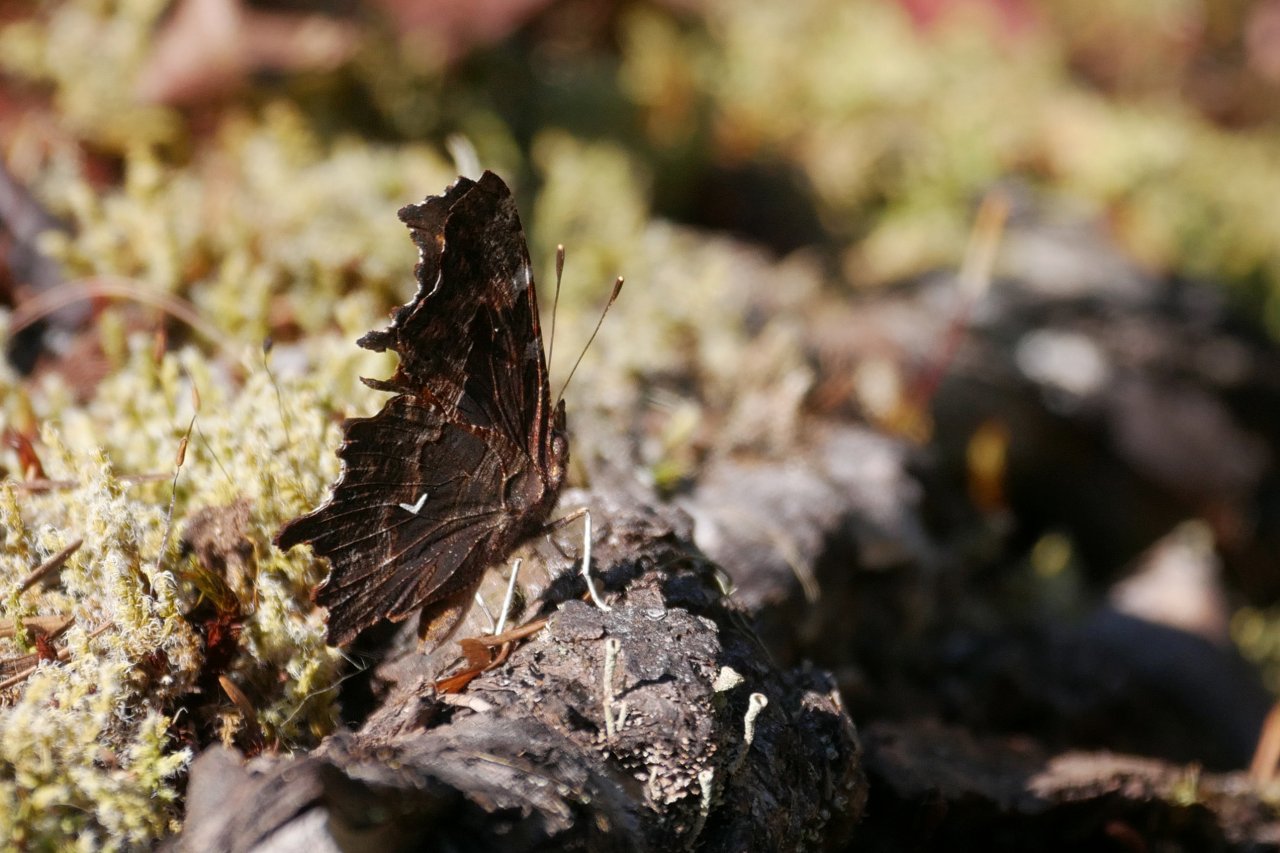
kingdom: Animalia
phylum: Arthropoda
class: Insecta
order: Lepidoptera
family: Nymphalidae
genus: Polygonia
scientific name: Polygonia oreas
